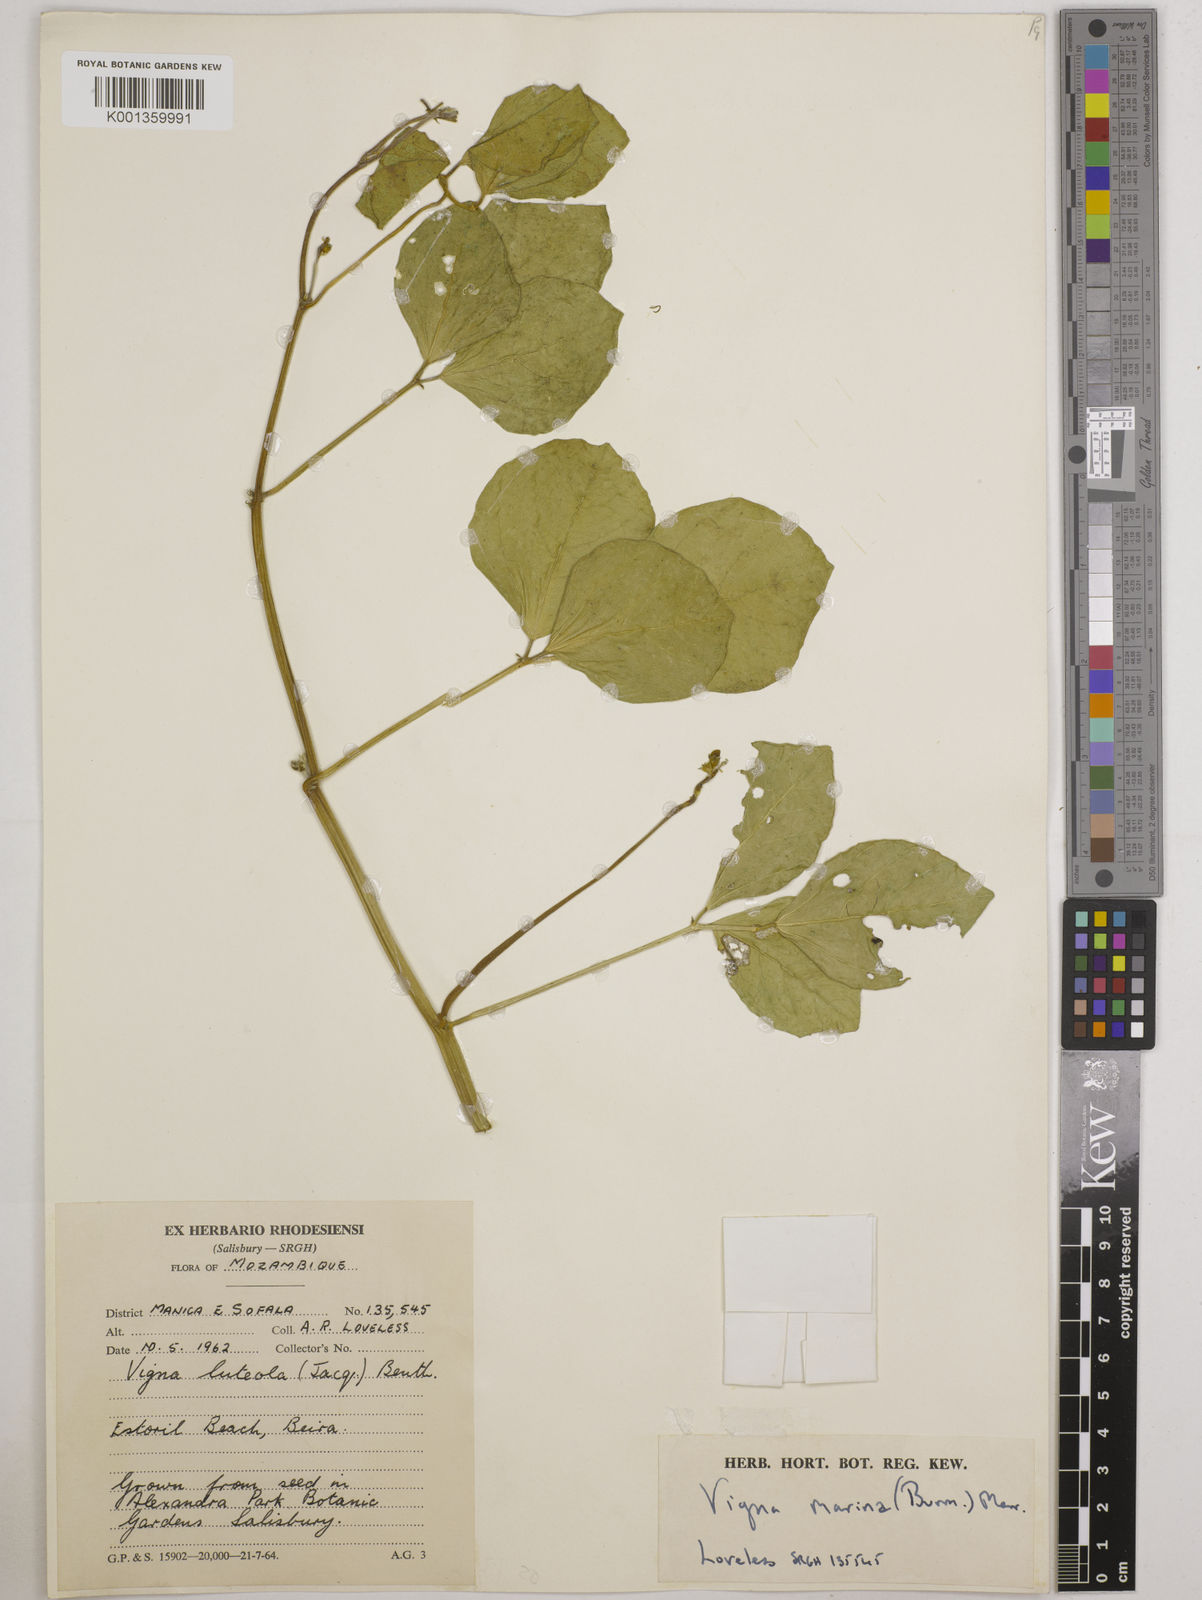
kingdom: Plantae
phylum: Tracheophyta
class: Magnoliopsida
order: Fabales
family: Fabaceae
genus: Vigna
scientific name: Vigna marina
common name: Dune-bean
